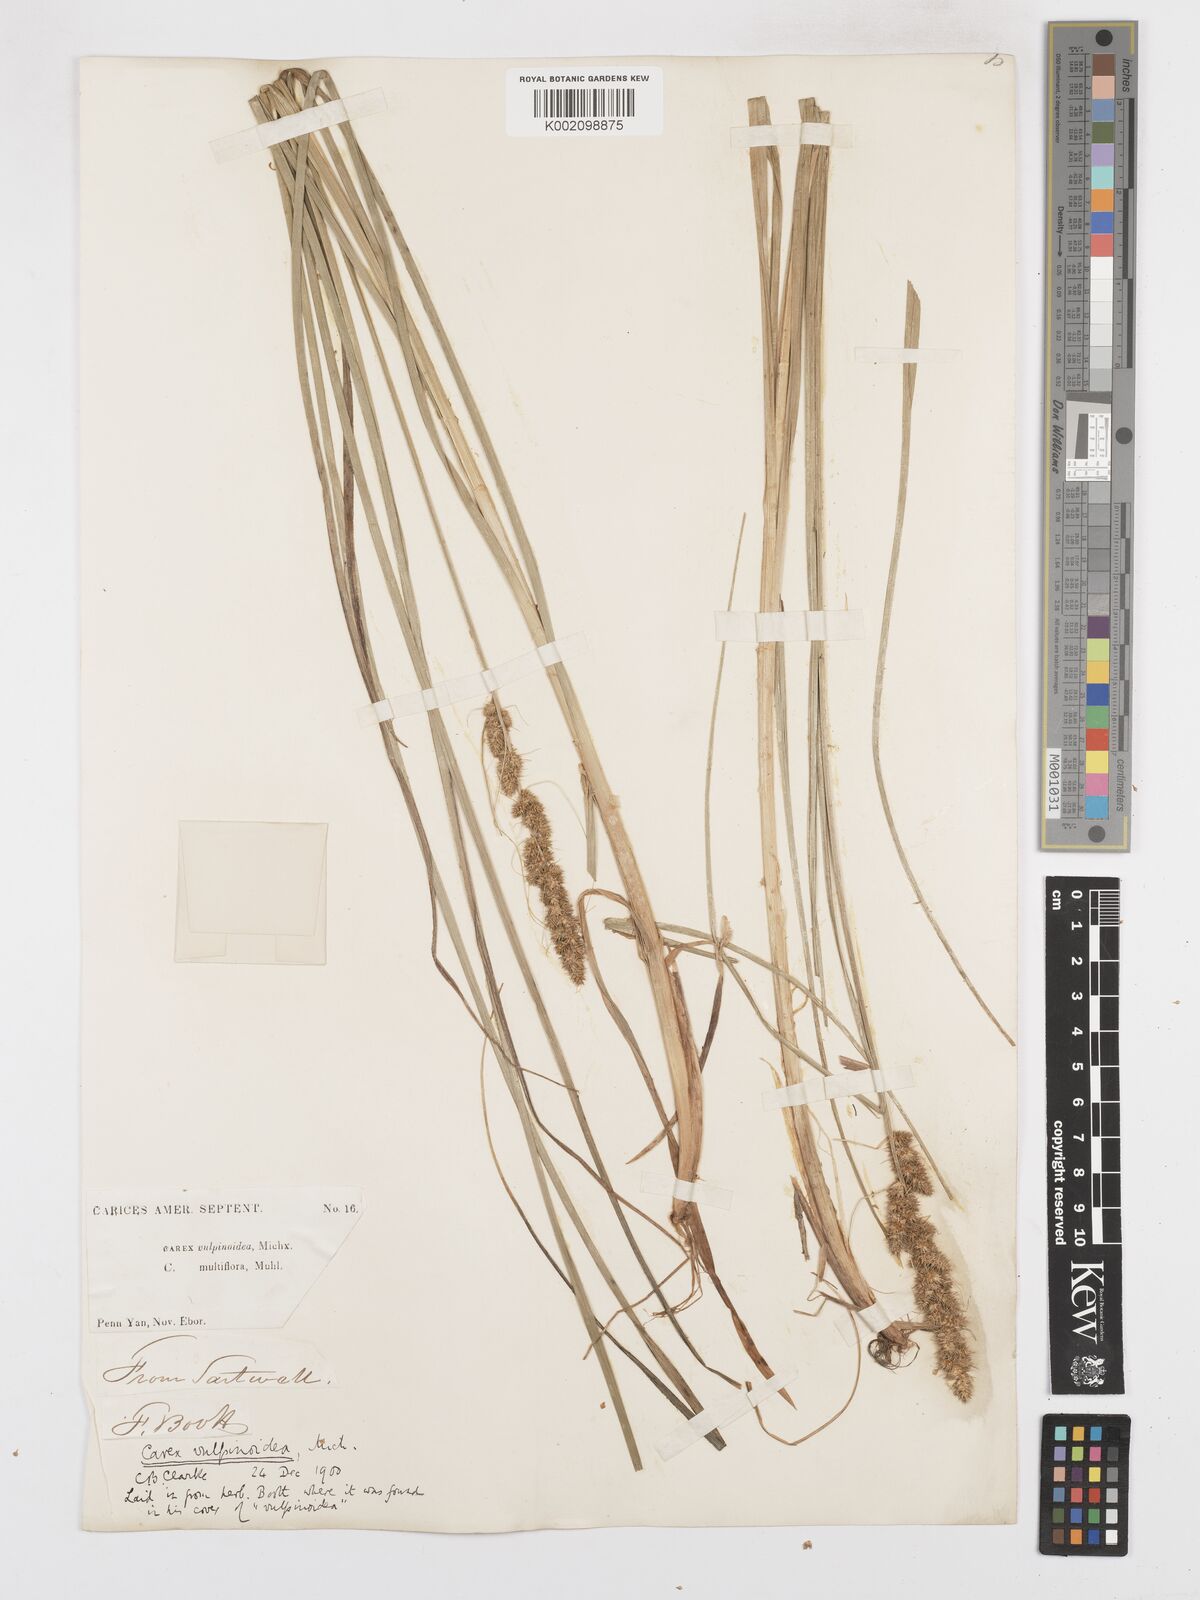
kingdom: Plantae
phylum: Tracheophyta
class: Liliopsida
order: Poales
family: Cyperaceae
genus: Carex
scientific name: Carex vulpinoidea
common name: American fox-sedge
